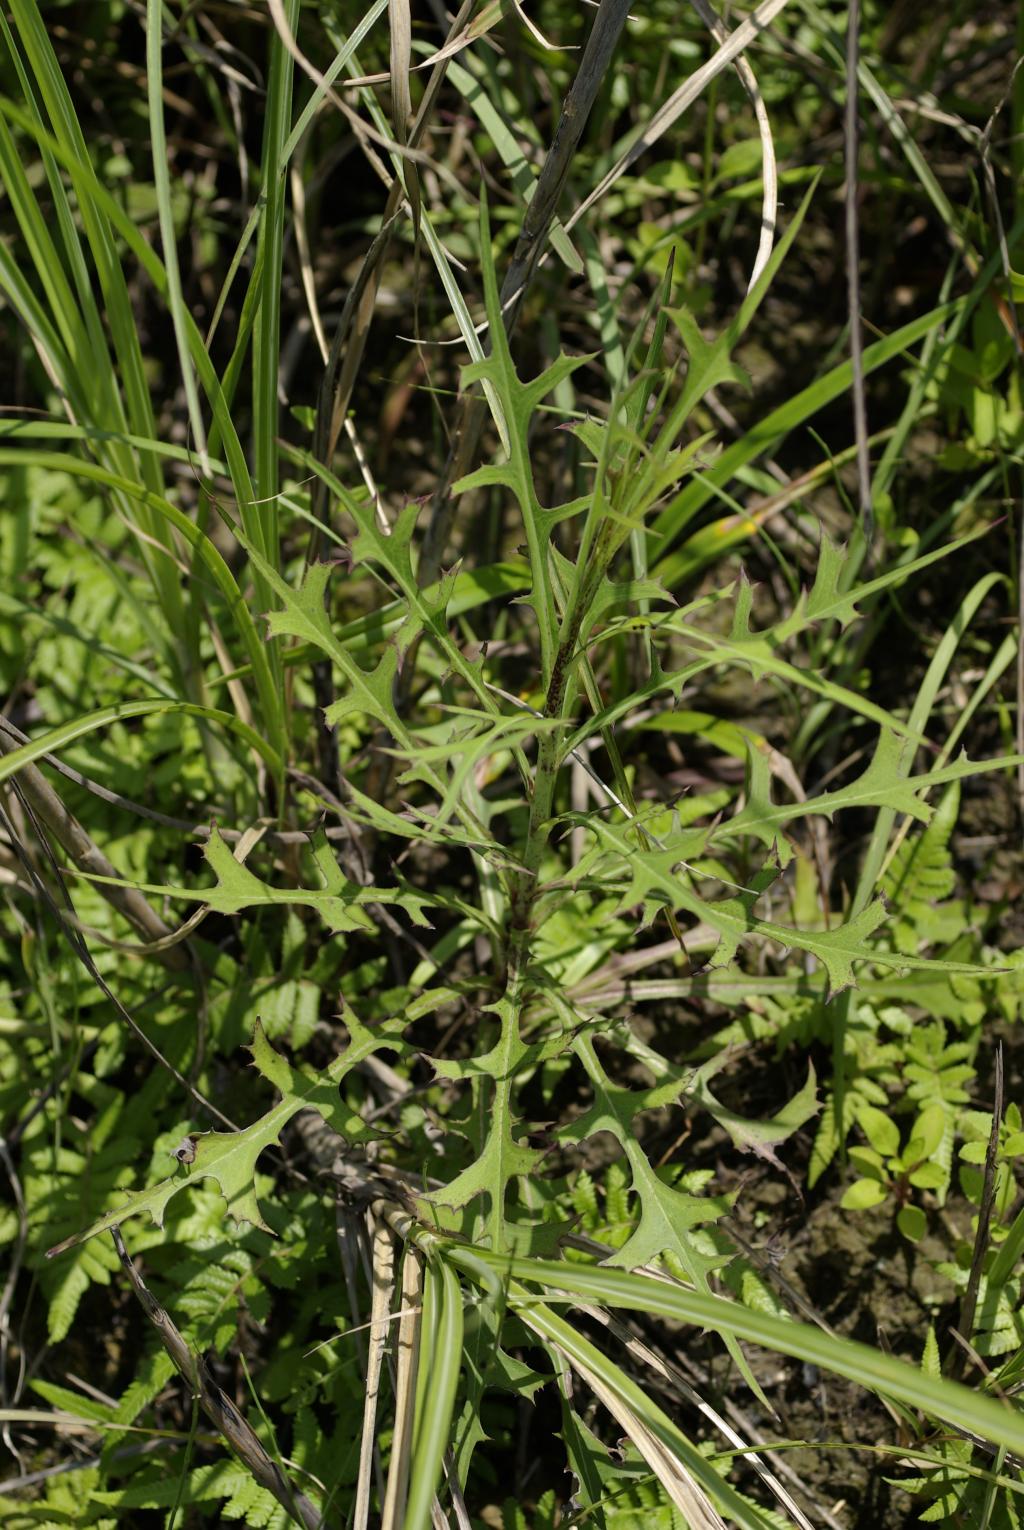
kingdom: Plantae
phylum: Tracheophyta
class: Magnoliopsida
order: Asterales
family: Asteraceae
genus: Lactuca
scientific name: Lactuca indica
